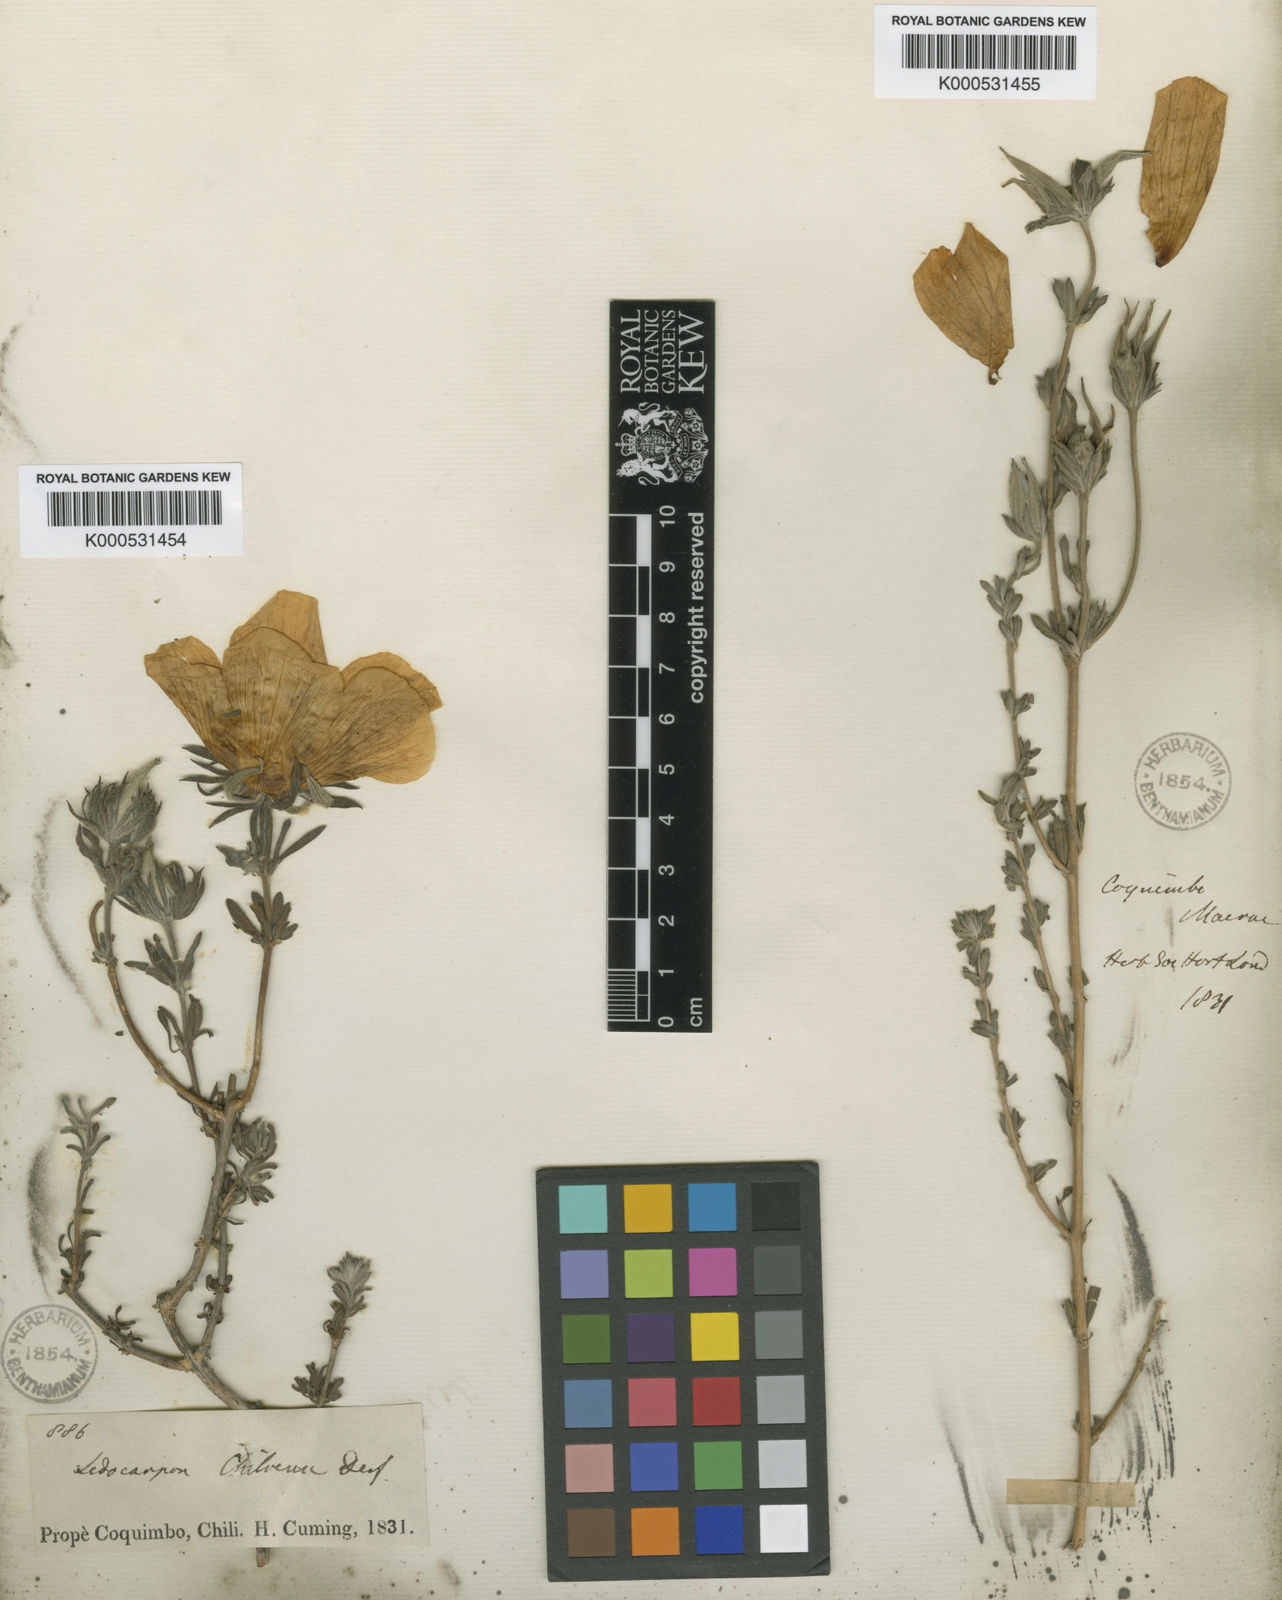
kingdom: Plantae
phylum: Tracheophyta
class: Magnoliopsida
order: Geraniales
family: Vivianiaceae
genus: Balbisia
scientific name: Balbisia peduncularis
